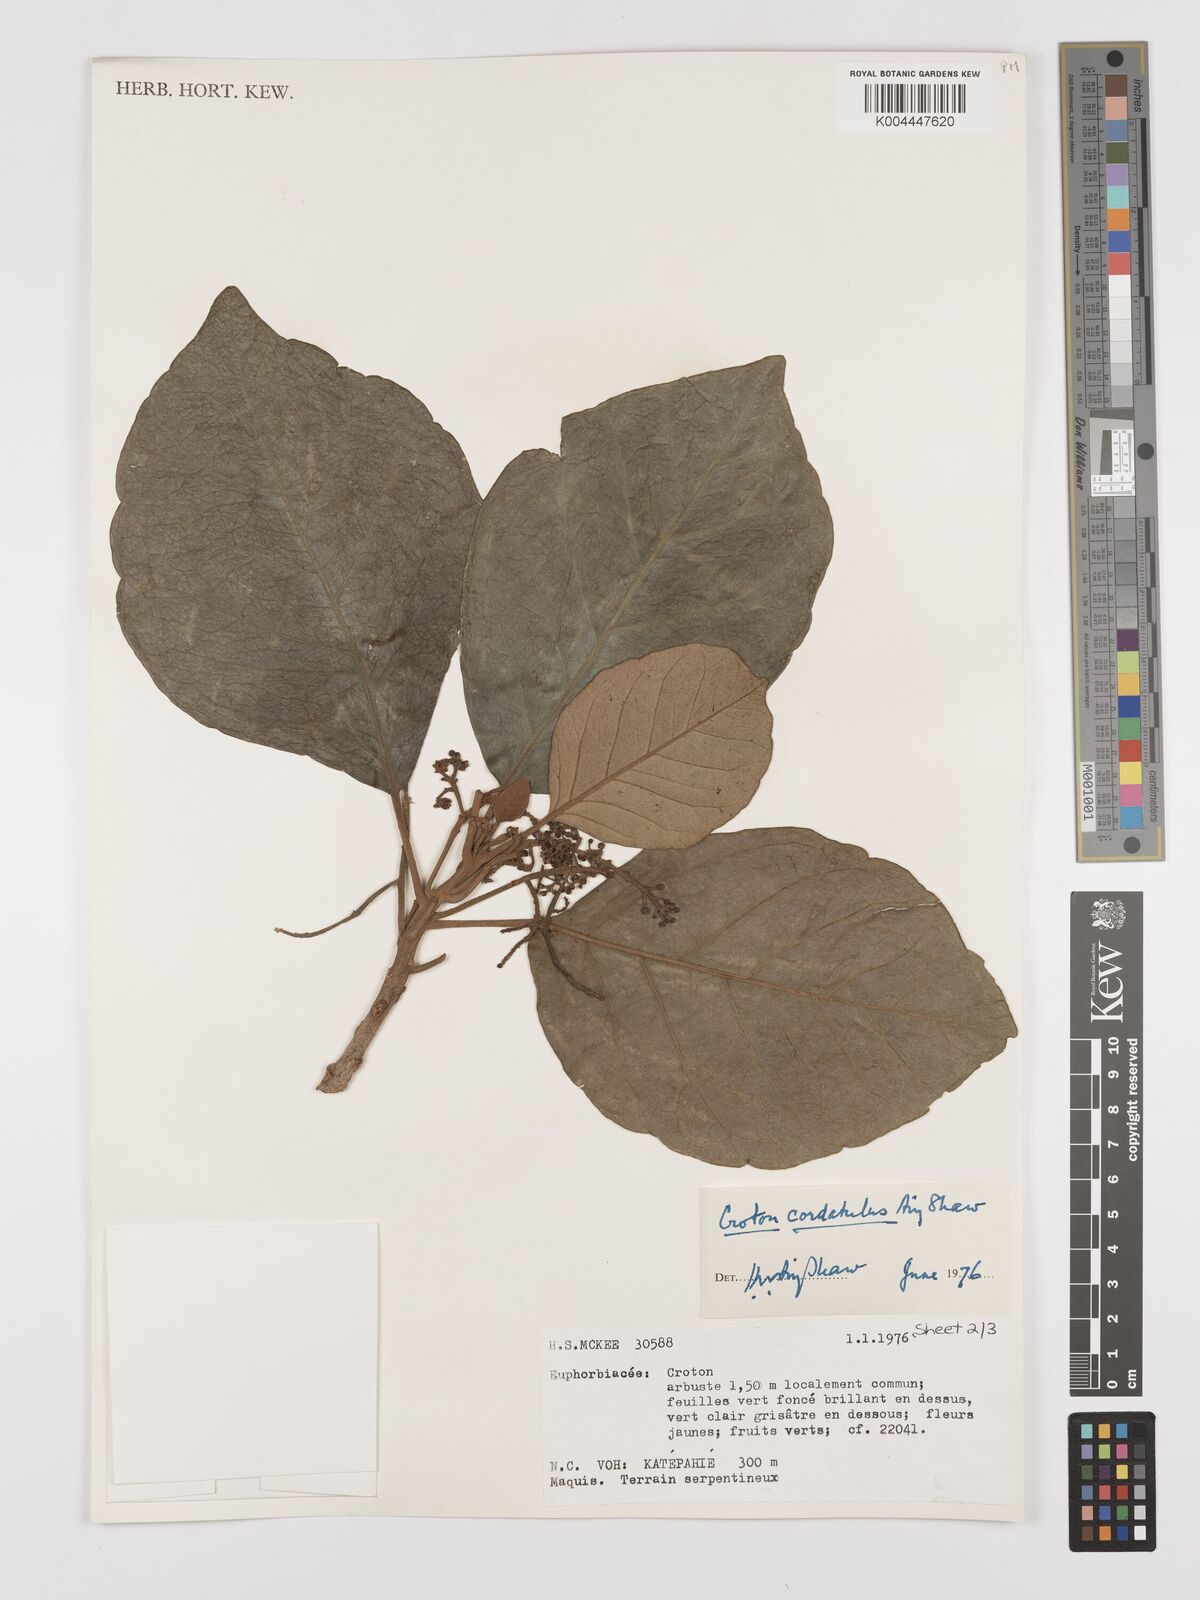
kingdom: Plantae
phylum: Tracheophyta
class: Magnoliopsida
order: Malpighiales
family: Euphorbiaceae
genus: Croton
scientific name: Croton cordatulus
